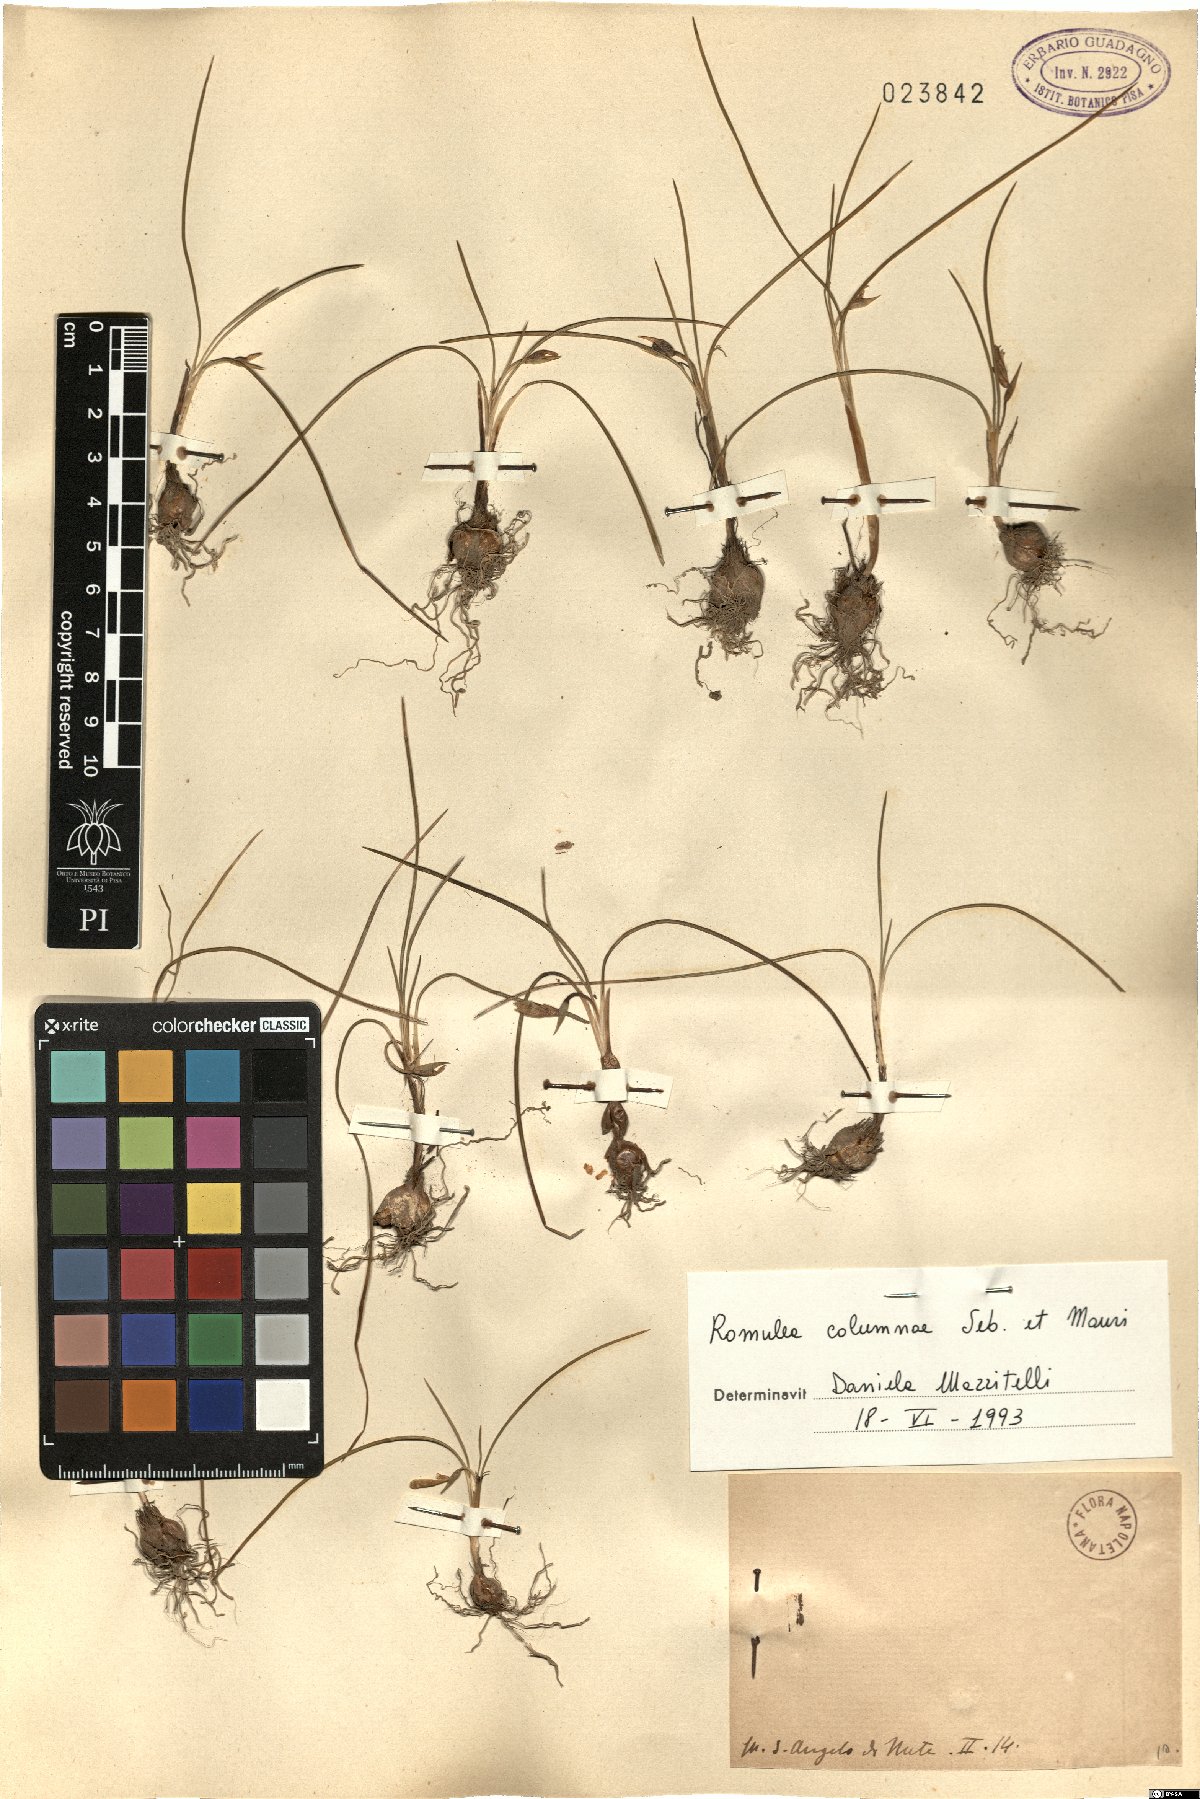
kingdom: Plantae
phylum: Tracheophyta
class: Liliopsida
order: Asparagales
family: Iridaceae
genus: Romulea
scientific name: Romulea columnae
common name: Sand-crocus
